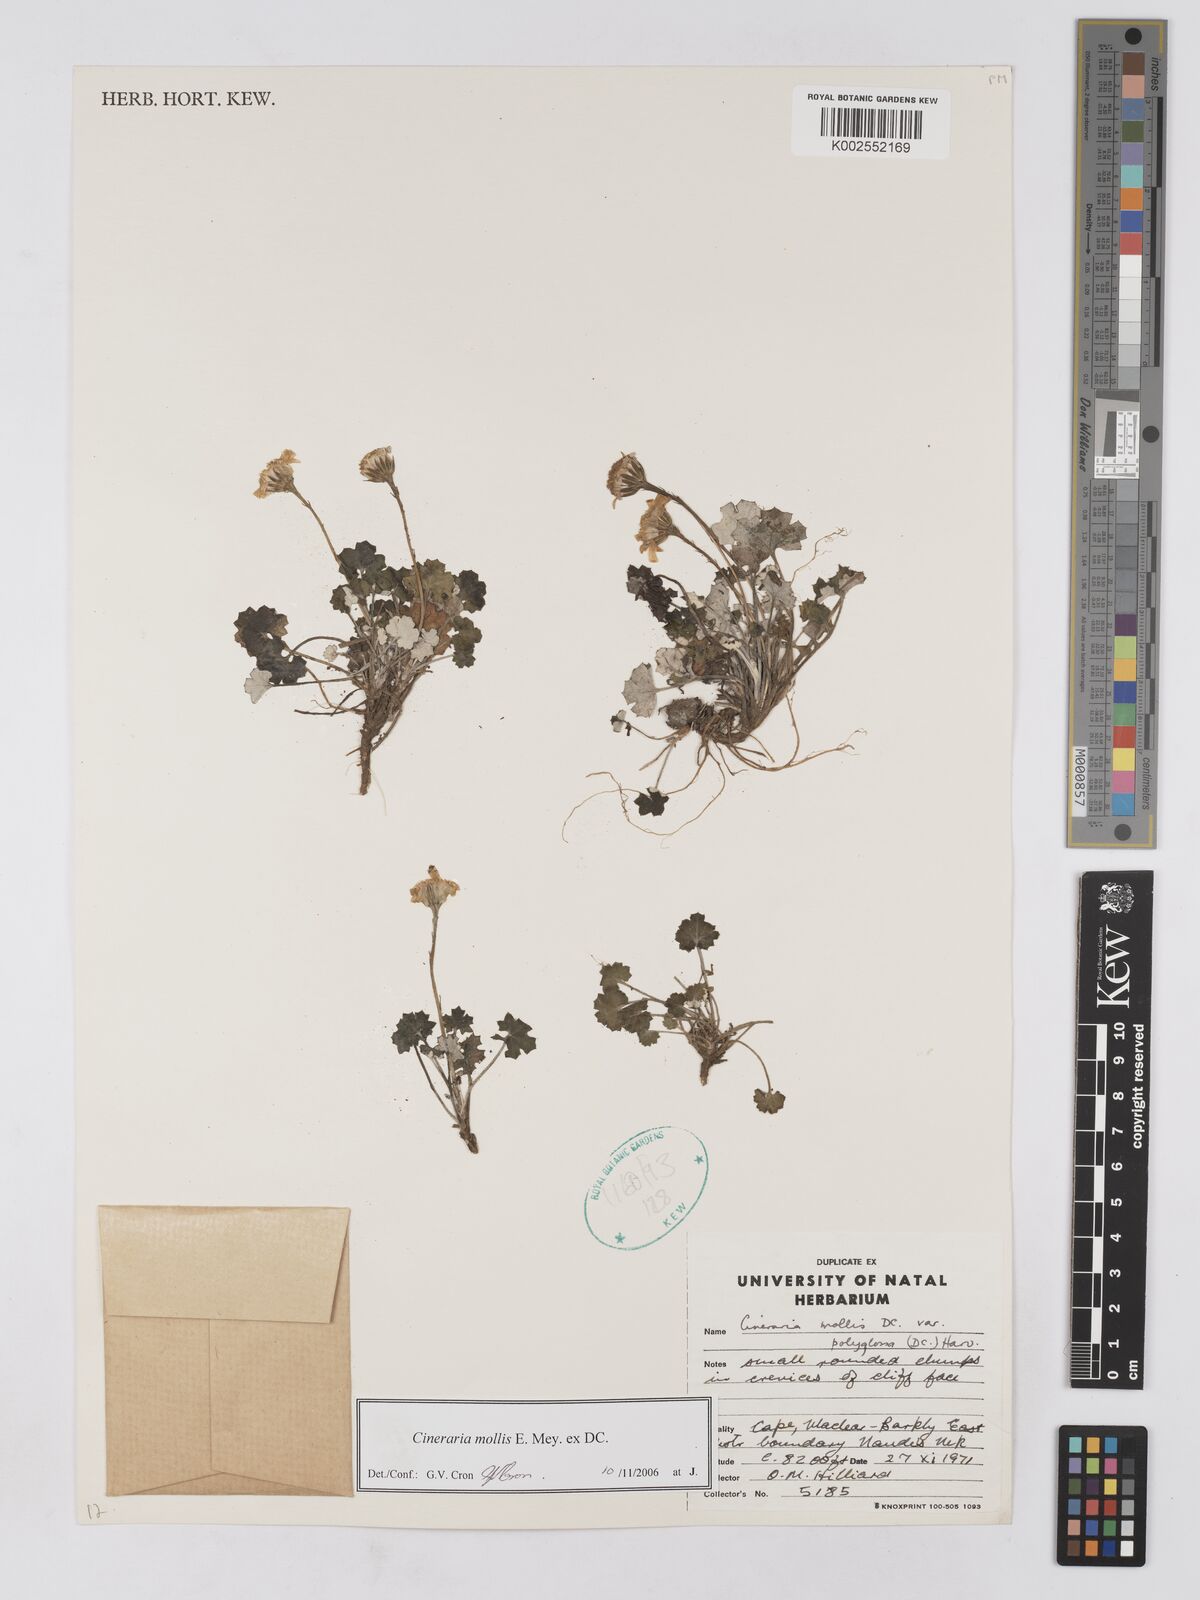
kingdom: Plantae
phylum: Tracheophyta
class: Magnoliopsida
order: Asterales
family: Asteraceae
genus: Cineraria
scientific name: Cineraria mollis
